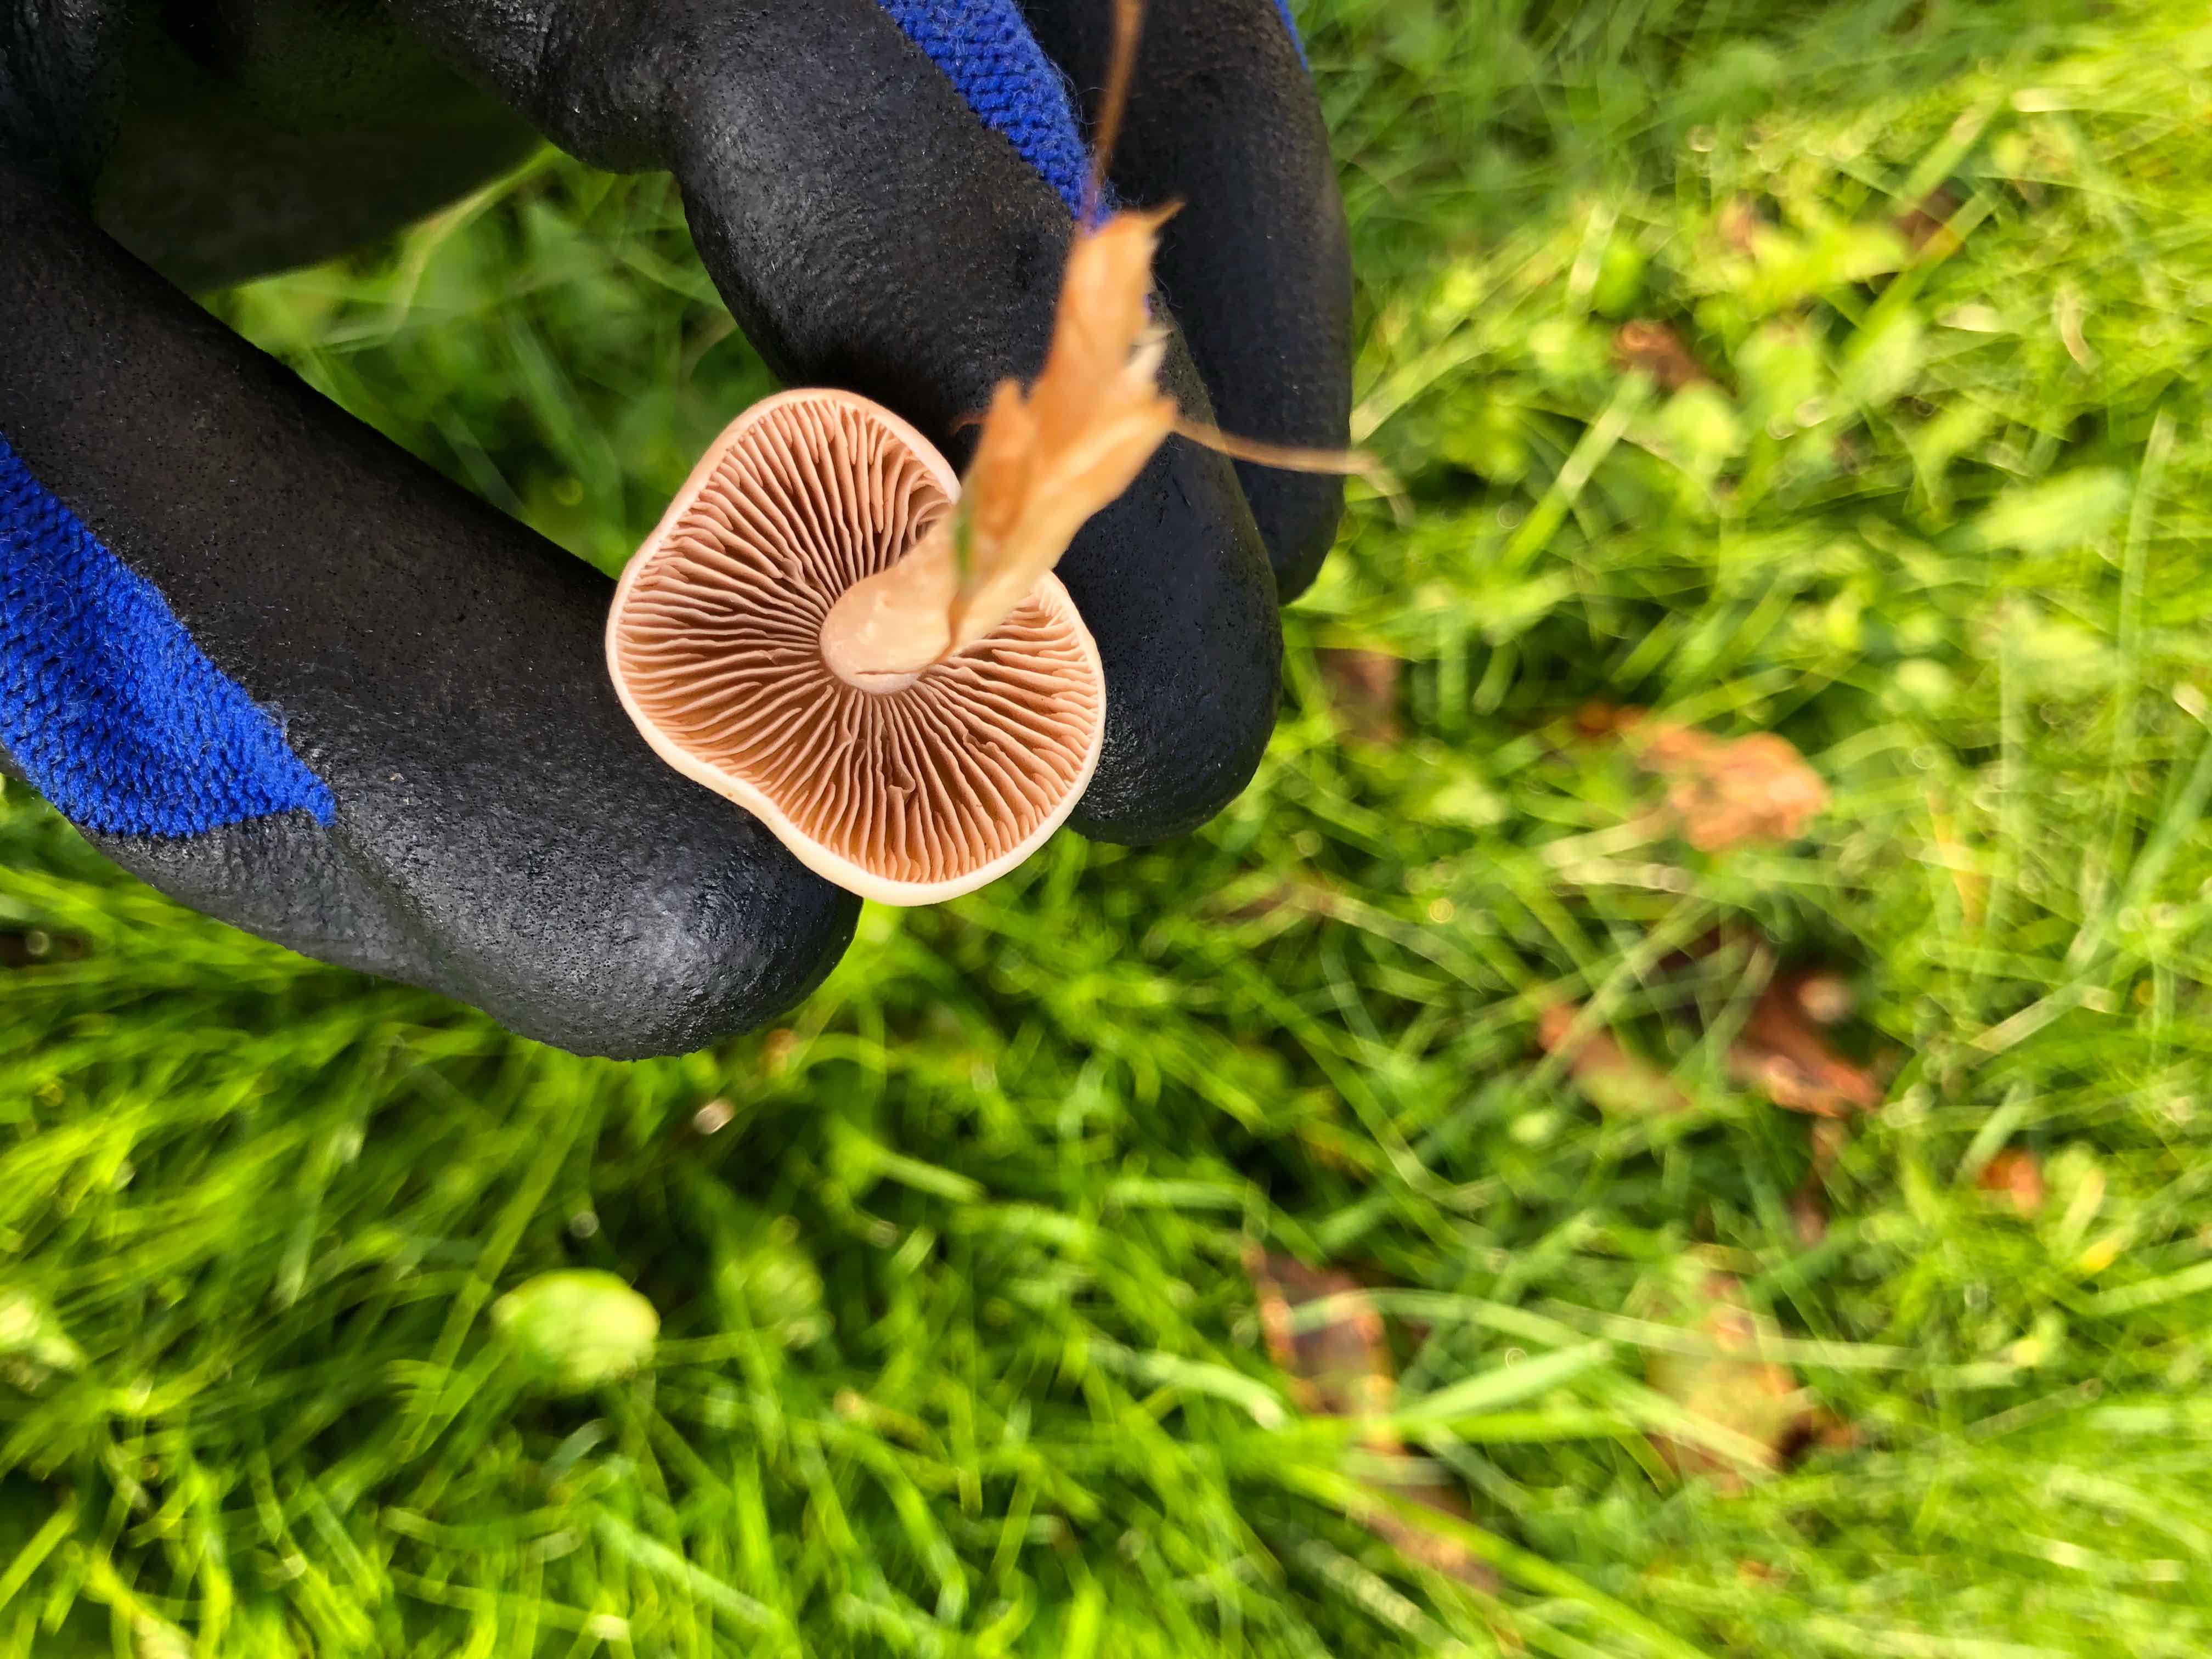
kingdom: Fungi
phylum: Basidiomycota
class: Agaricomycetes
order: Agaricales
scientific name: Agaricales
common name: champignonordenen
